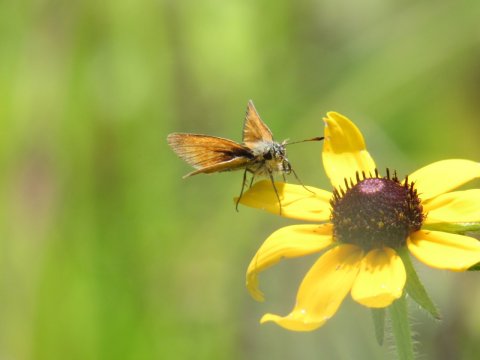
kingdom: Animalia
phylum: Arthropoda
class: Insecta
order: Lepidoptera
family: Hesperiidae
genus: Thymelicus
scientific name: Thymelicus lineola
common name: European Skipper
